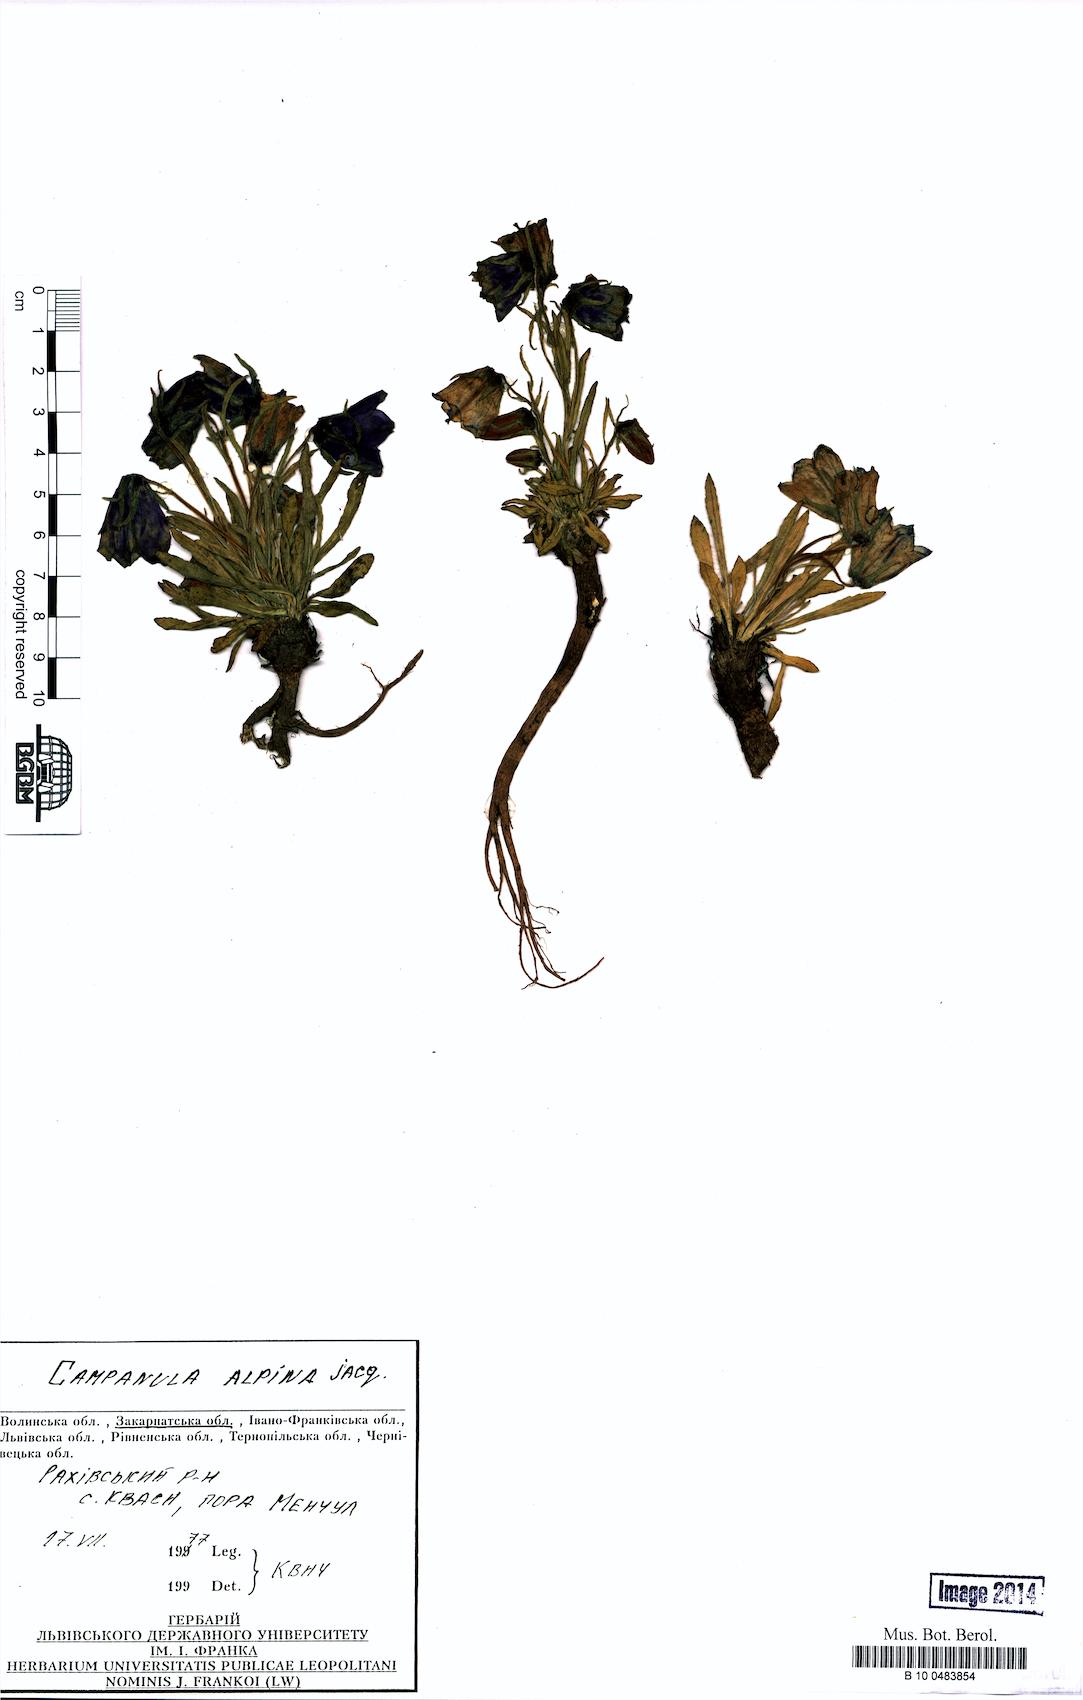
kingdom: Plantae
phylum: Tracheophyta
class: Magnoliopsida
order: Asterales
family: Campanulaceae
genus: Campanula
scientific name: Campanula alpina
